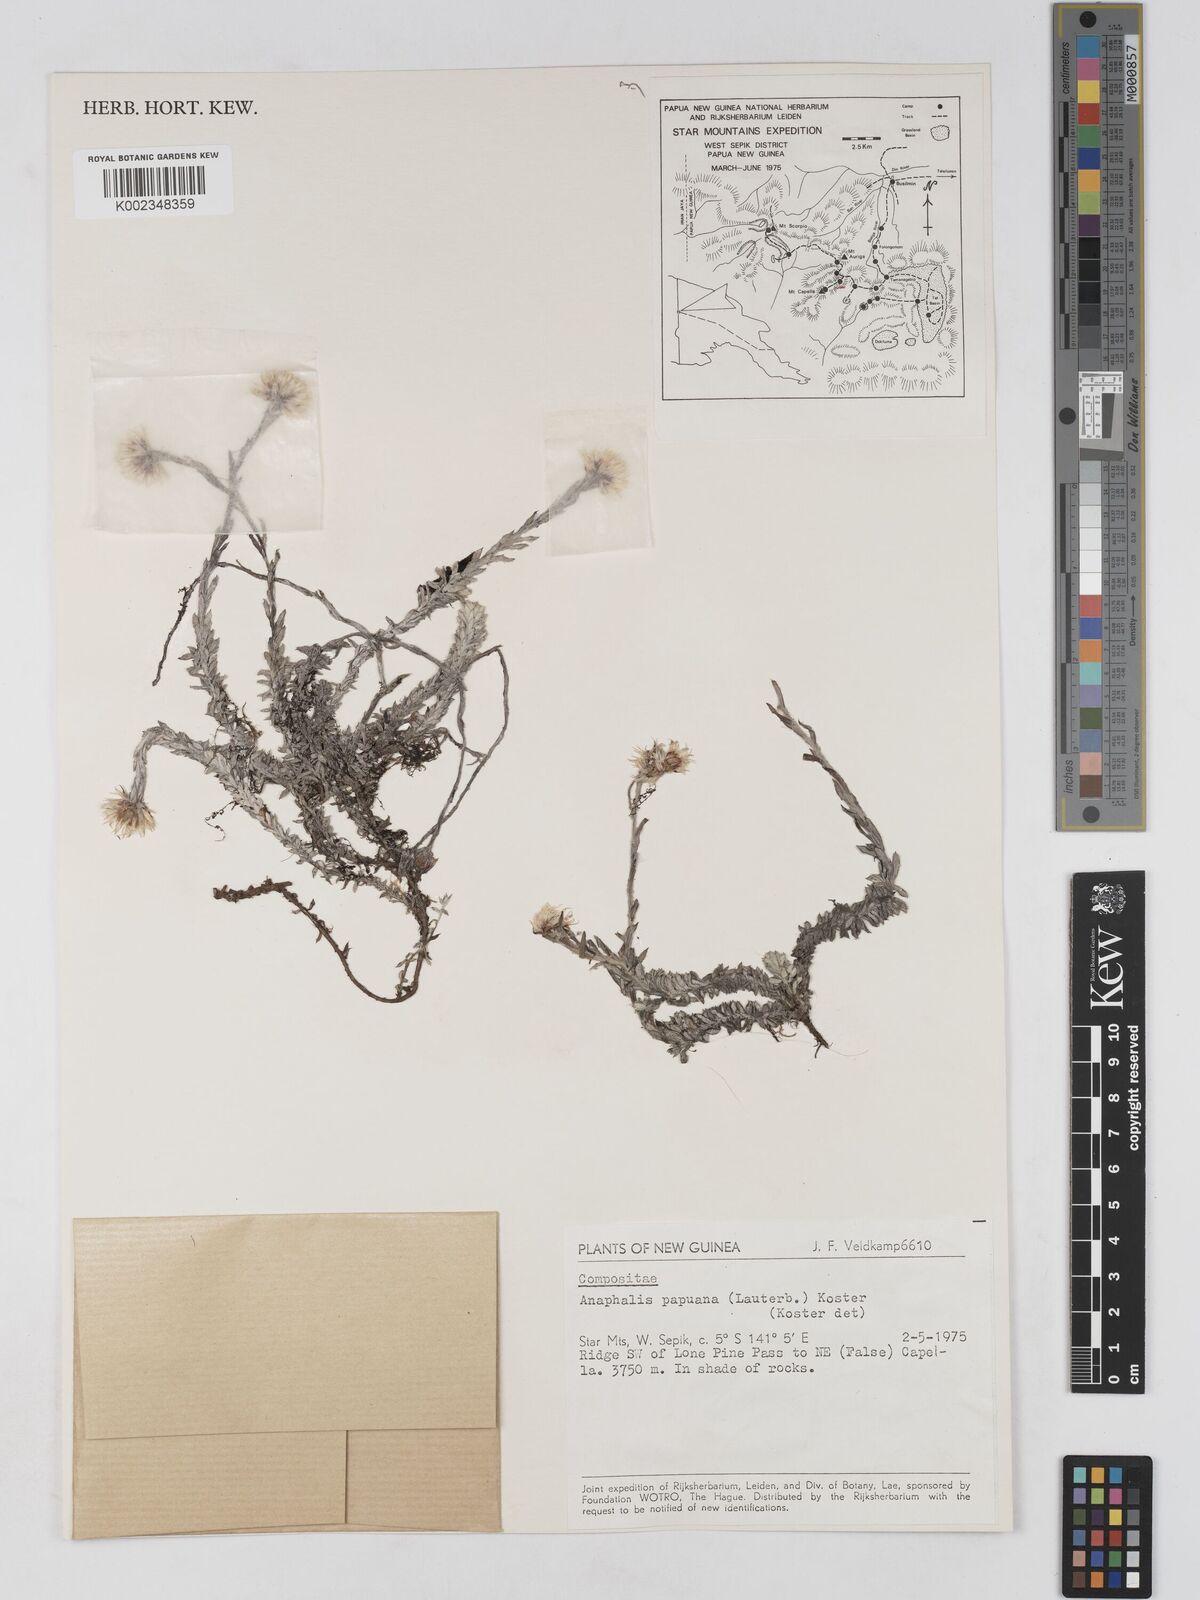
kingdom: Plantae
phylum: Tracheophyta
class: Magnoliopsida
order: Asterales
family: Asteraceae
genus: Anaphalioides
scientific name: Anaphalioides papuana
